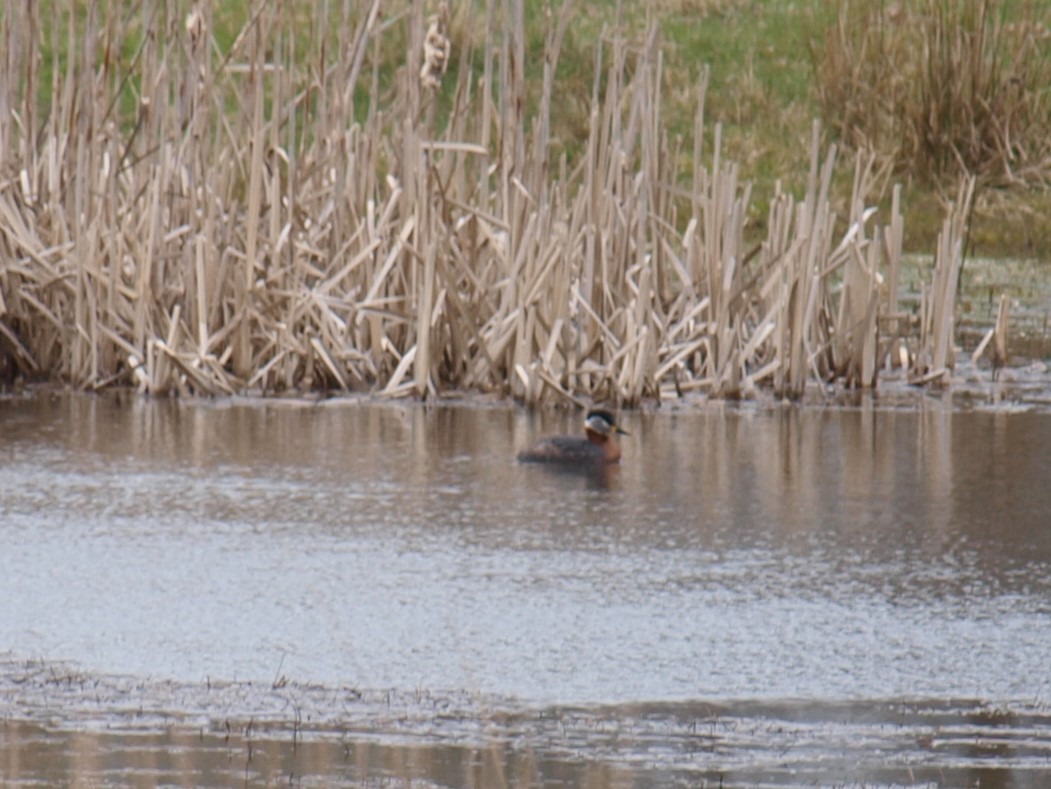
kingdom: Animalia
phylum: Chordata
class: Aves
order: Podicipediformes
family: Podicipedidae
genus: Podiceps
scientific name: Podiceps grisegena
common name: Gråstrubet lappedykker
